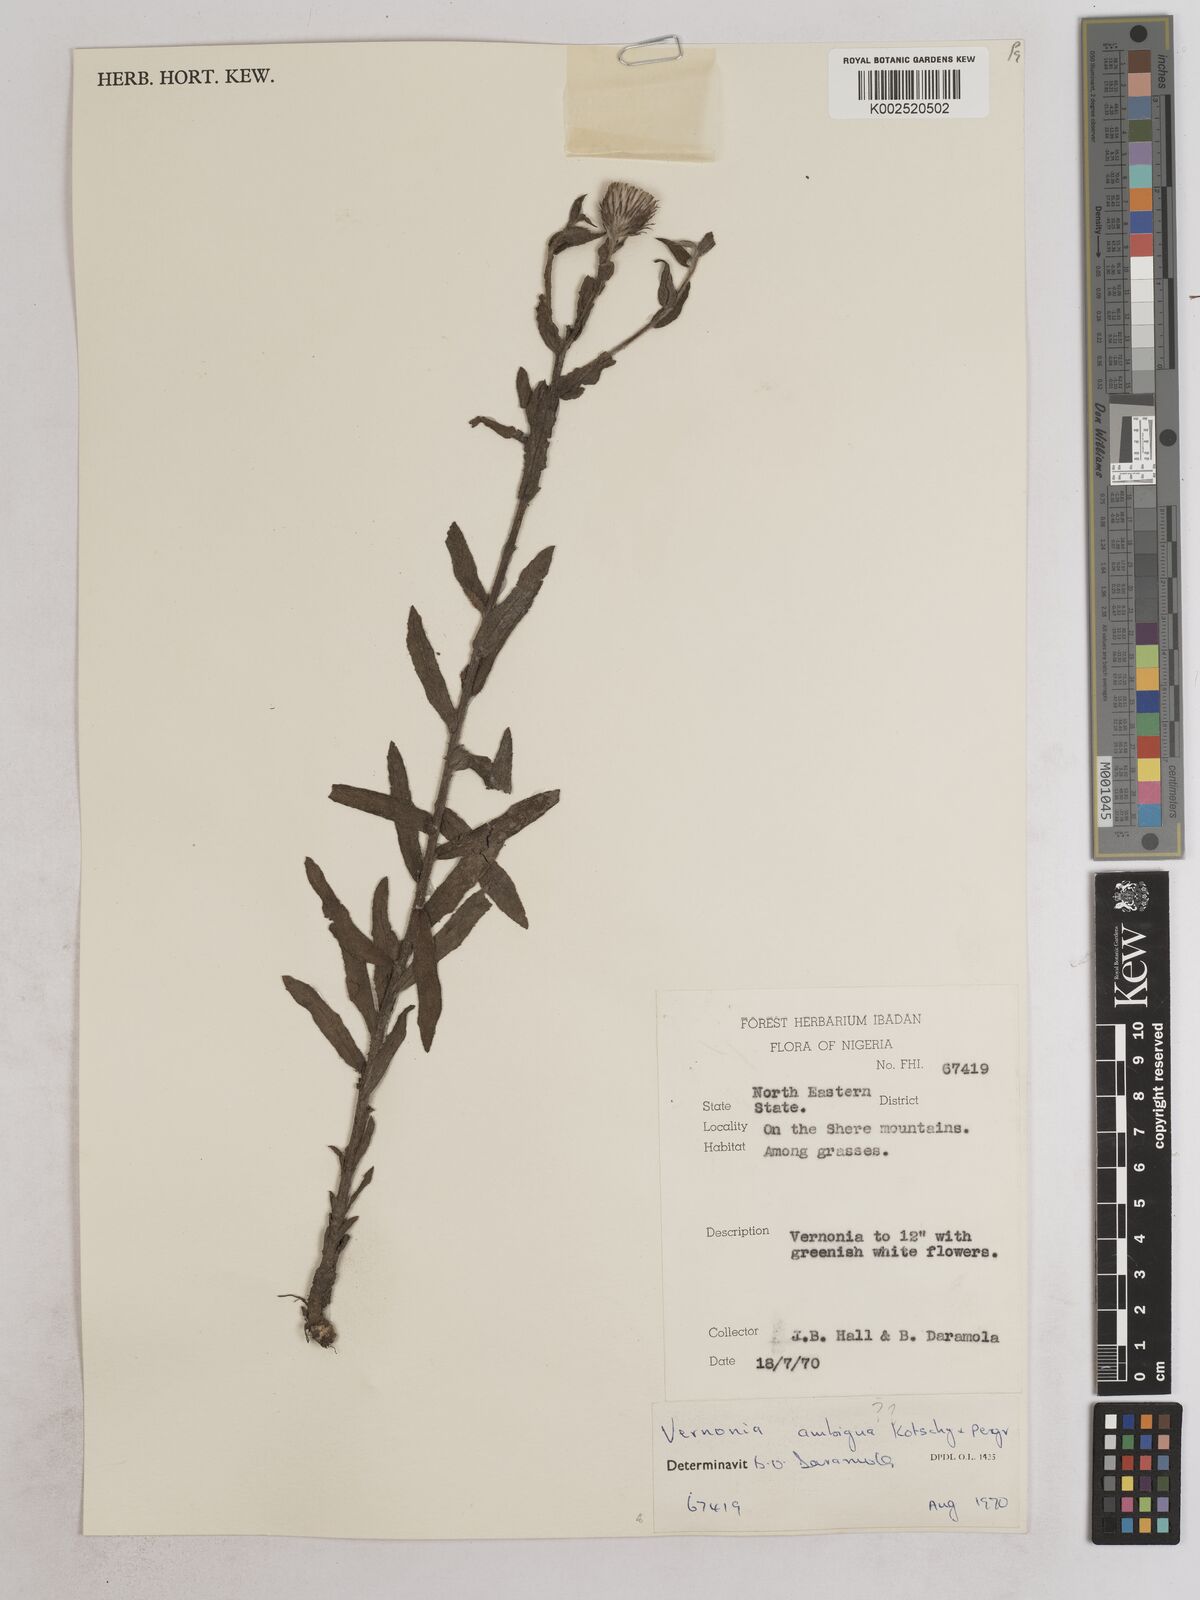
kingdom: Plantae
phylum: Tracheophyta
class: Magnoliopsida
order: Asterales
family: Asteraceae
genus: Vernoniastrum
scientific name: Vernoniastrum ambiguum
